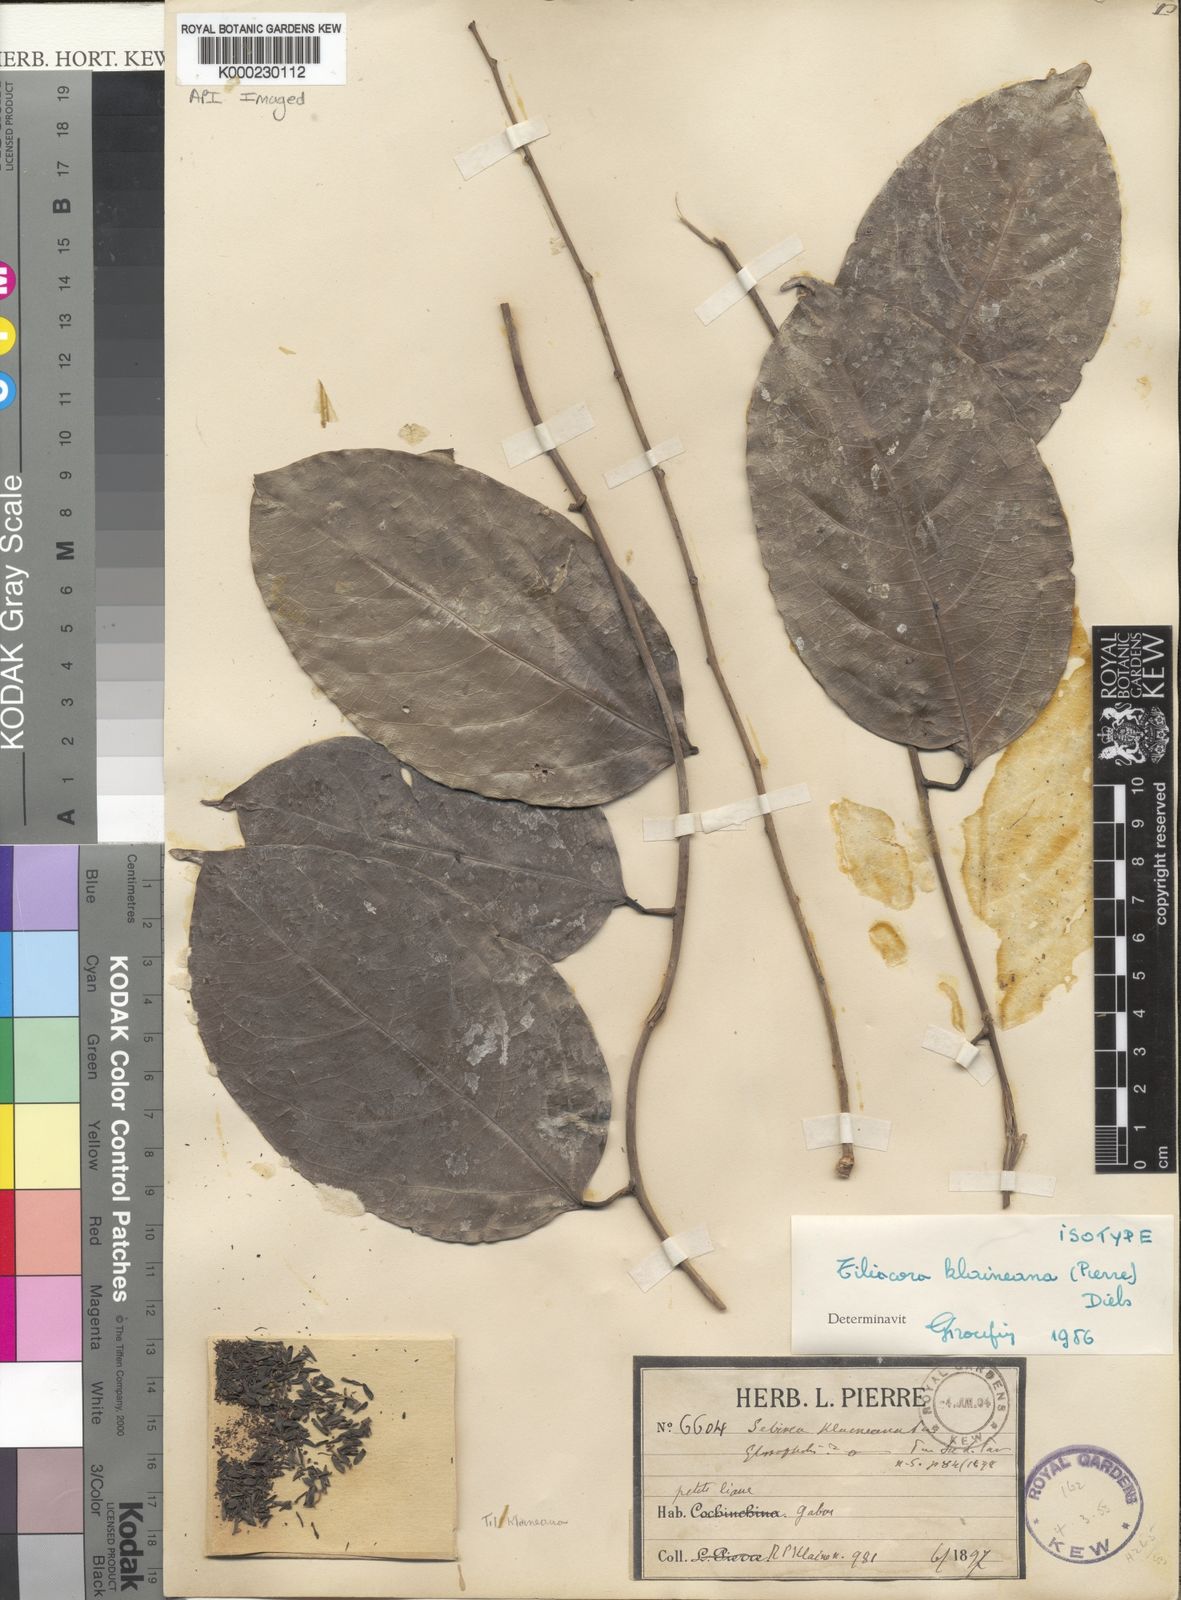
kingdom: Plantae
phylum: Tracheophyta
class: Magnoliopsida
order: Ranunculales
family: Menispermaceae
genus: Tiliacora
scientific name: Tiliacora klaineana
